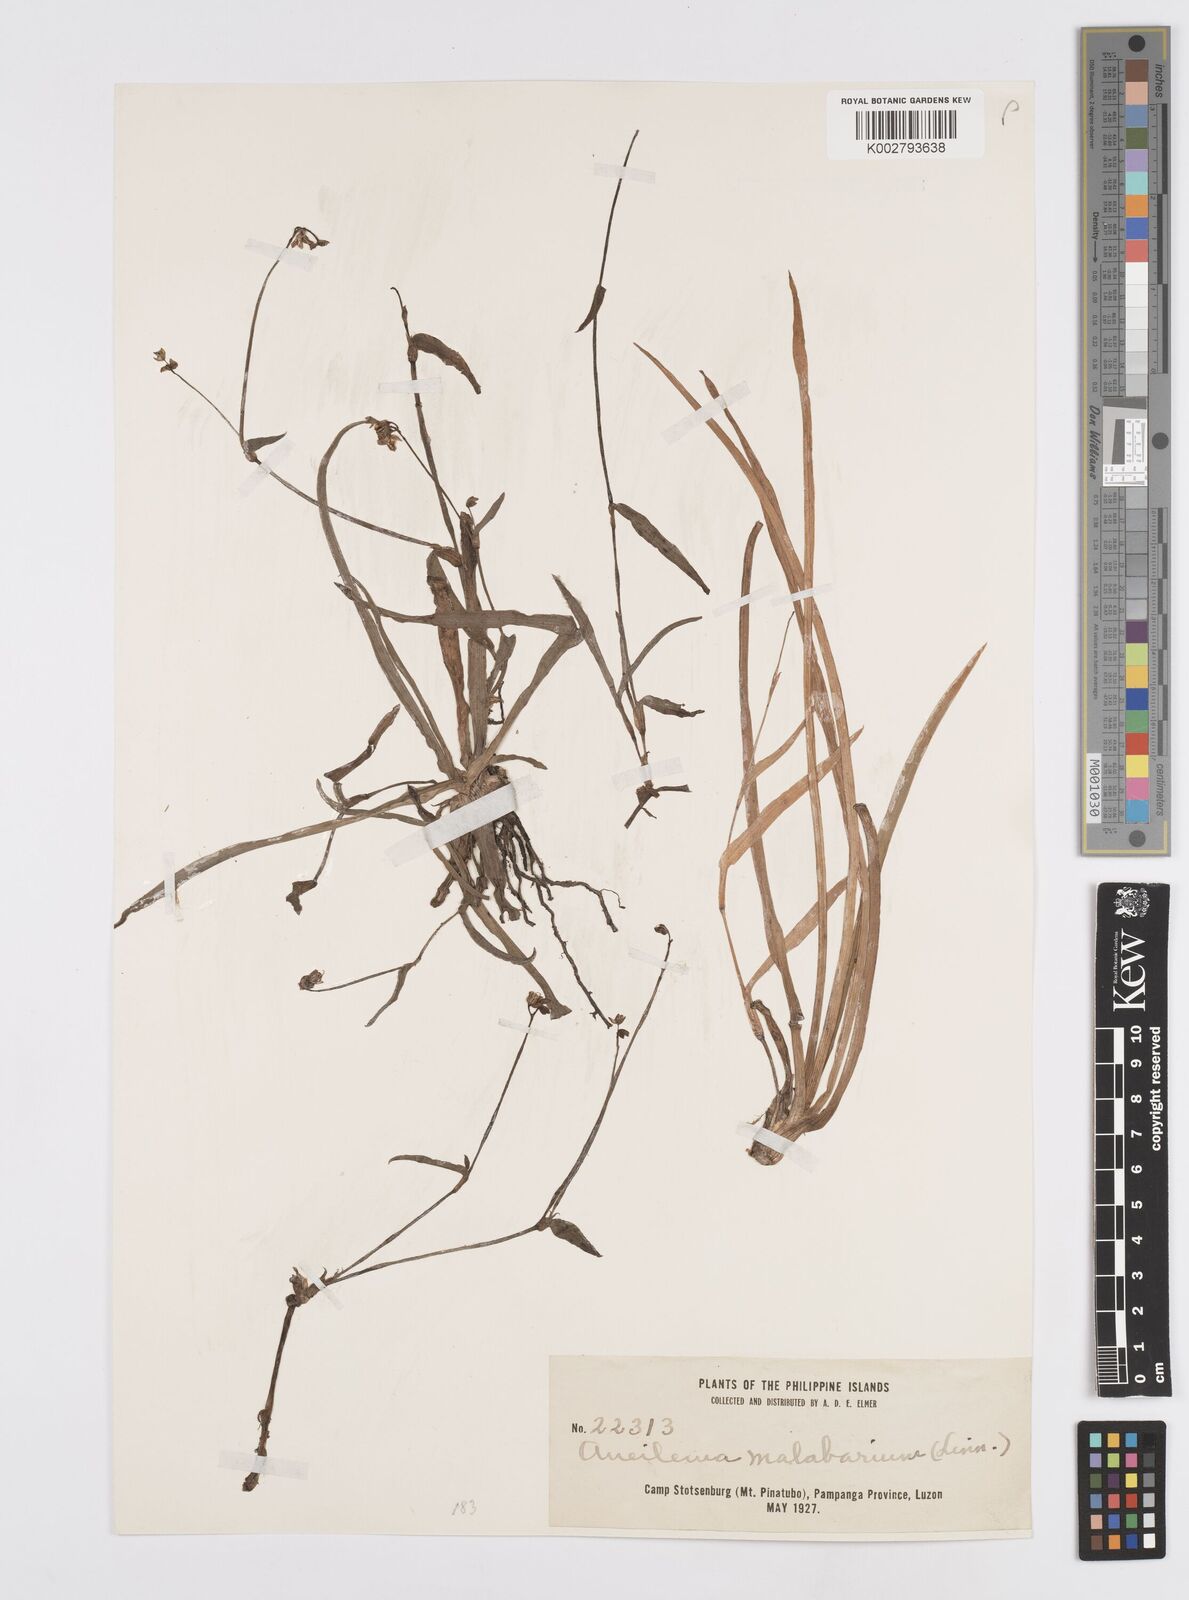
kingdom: Plantae
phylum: Tracheophyta
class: Liliopsida
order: Commelinales
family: Commelinaceae
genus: Murdannia
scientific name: Murdannia nudiflora
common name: Nakedstem dewflower
